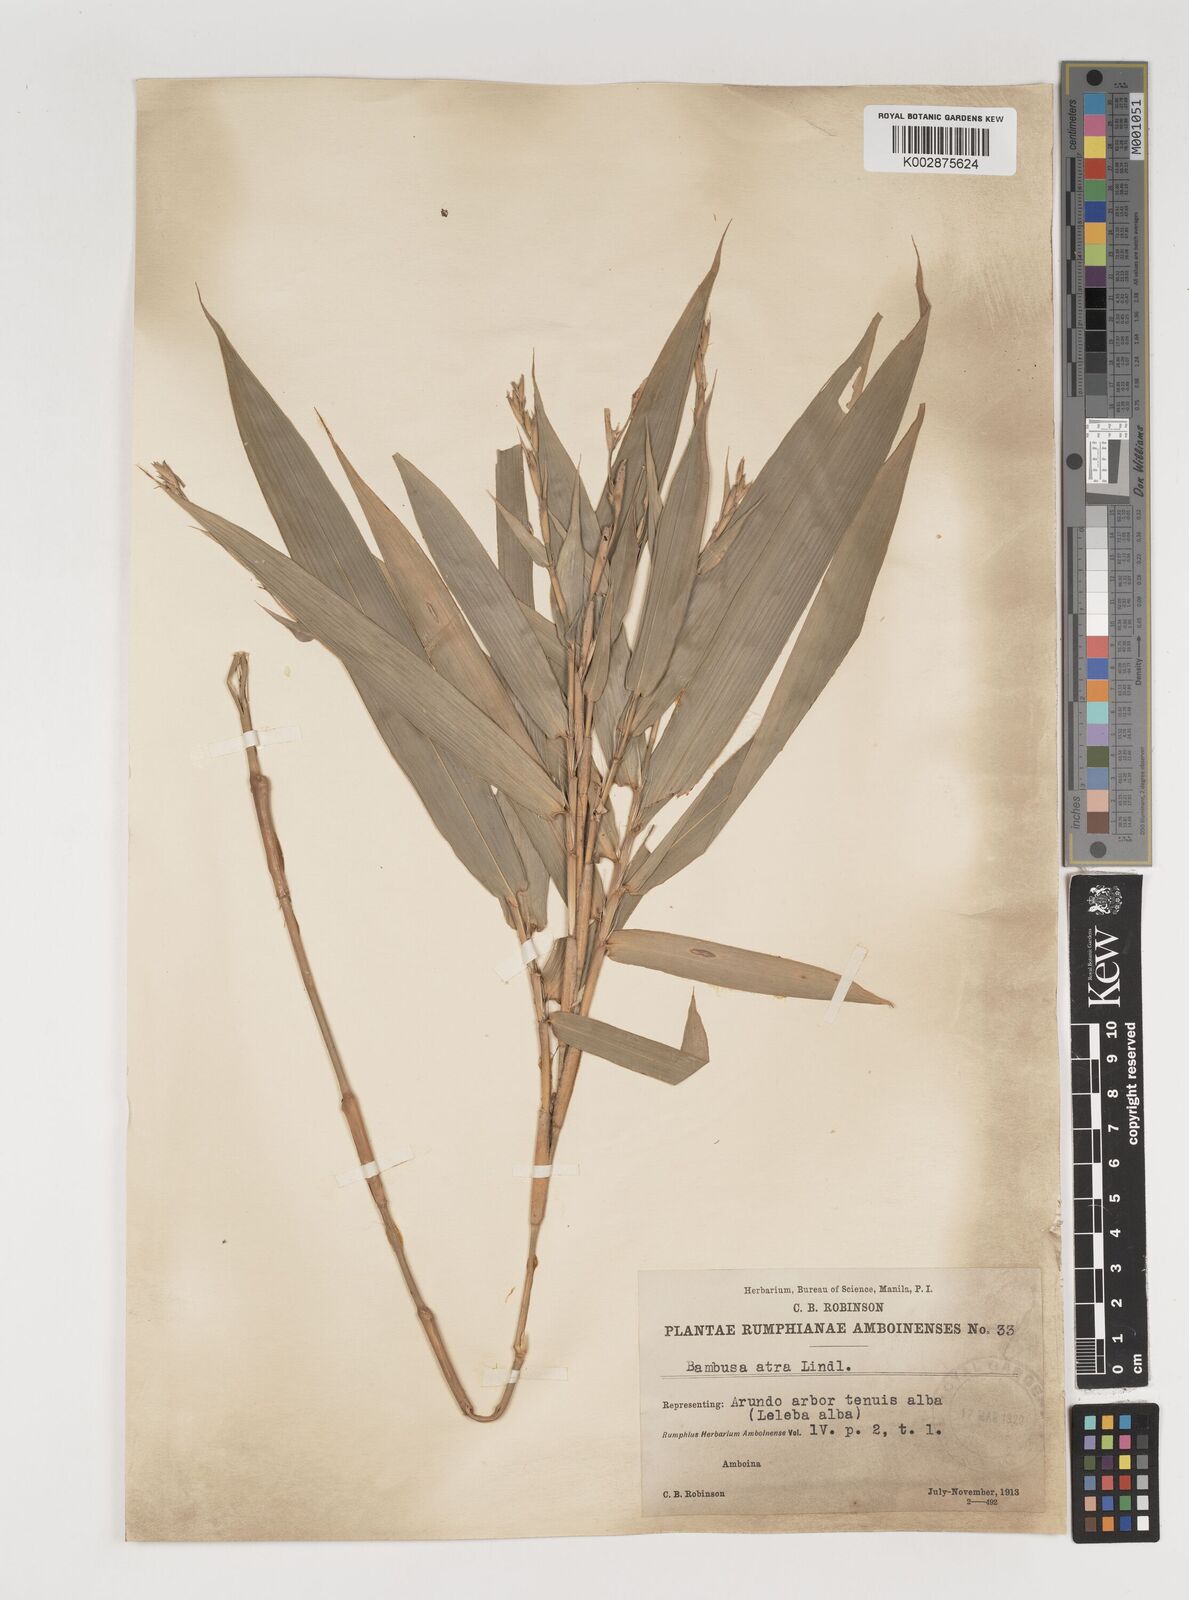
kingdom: Plantae
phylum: Tracheophyta
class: Liliopsida
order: Poales
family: Poaceae
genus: Neololeba
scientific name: Neololeba atra
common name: Cape bamboo
